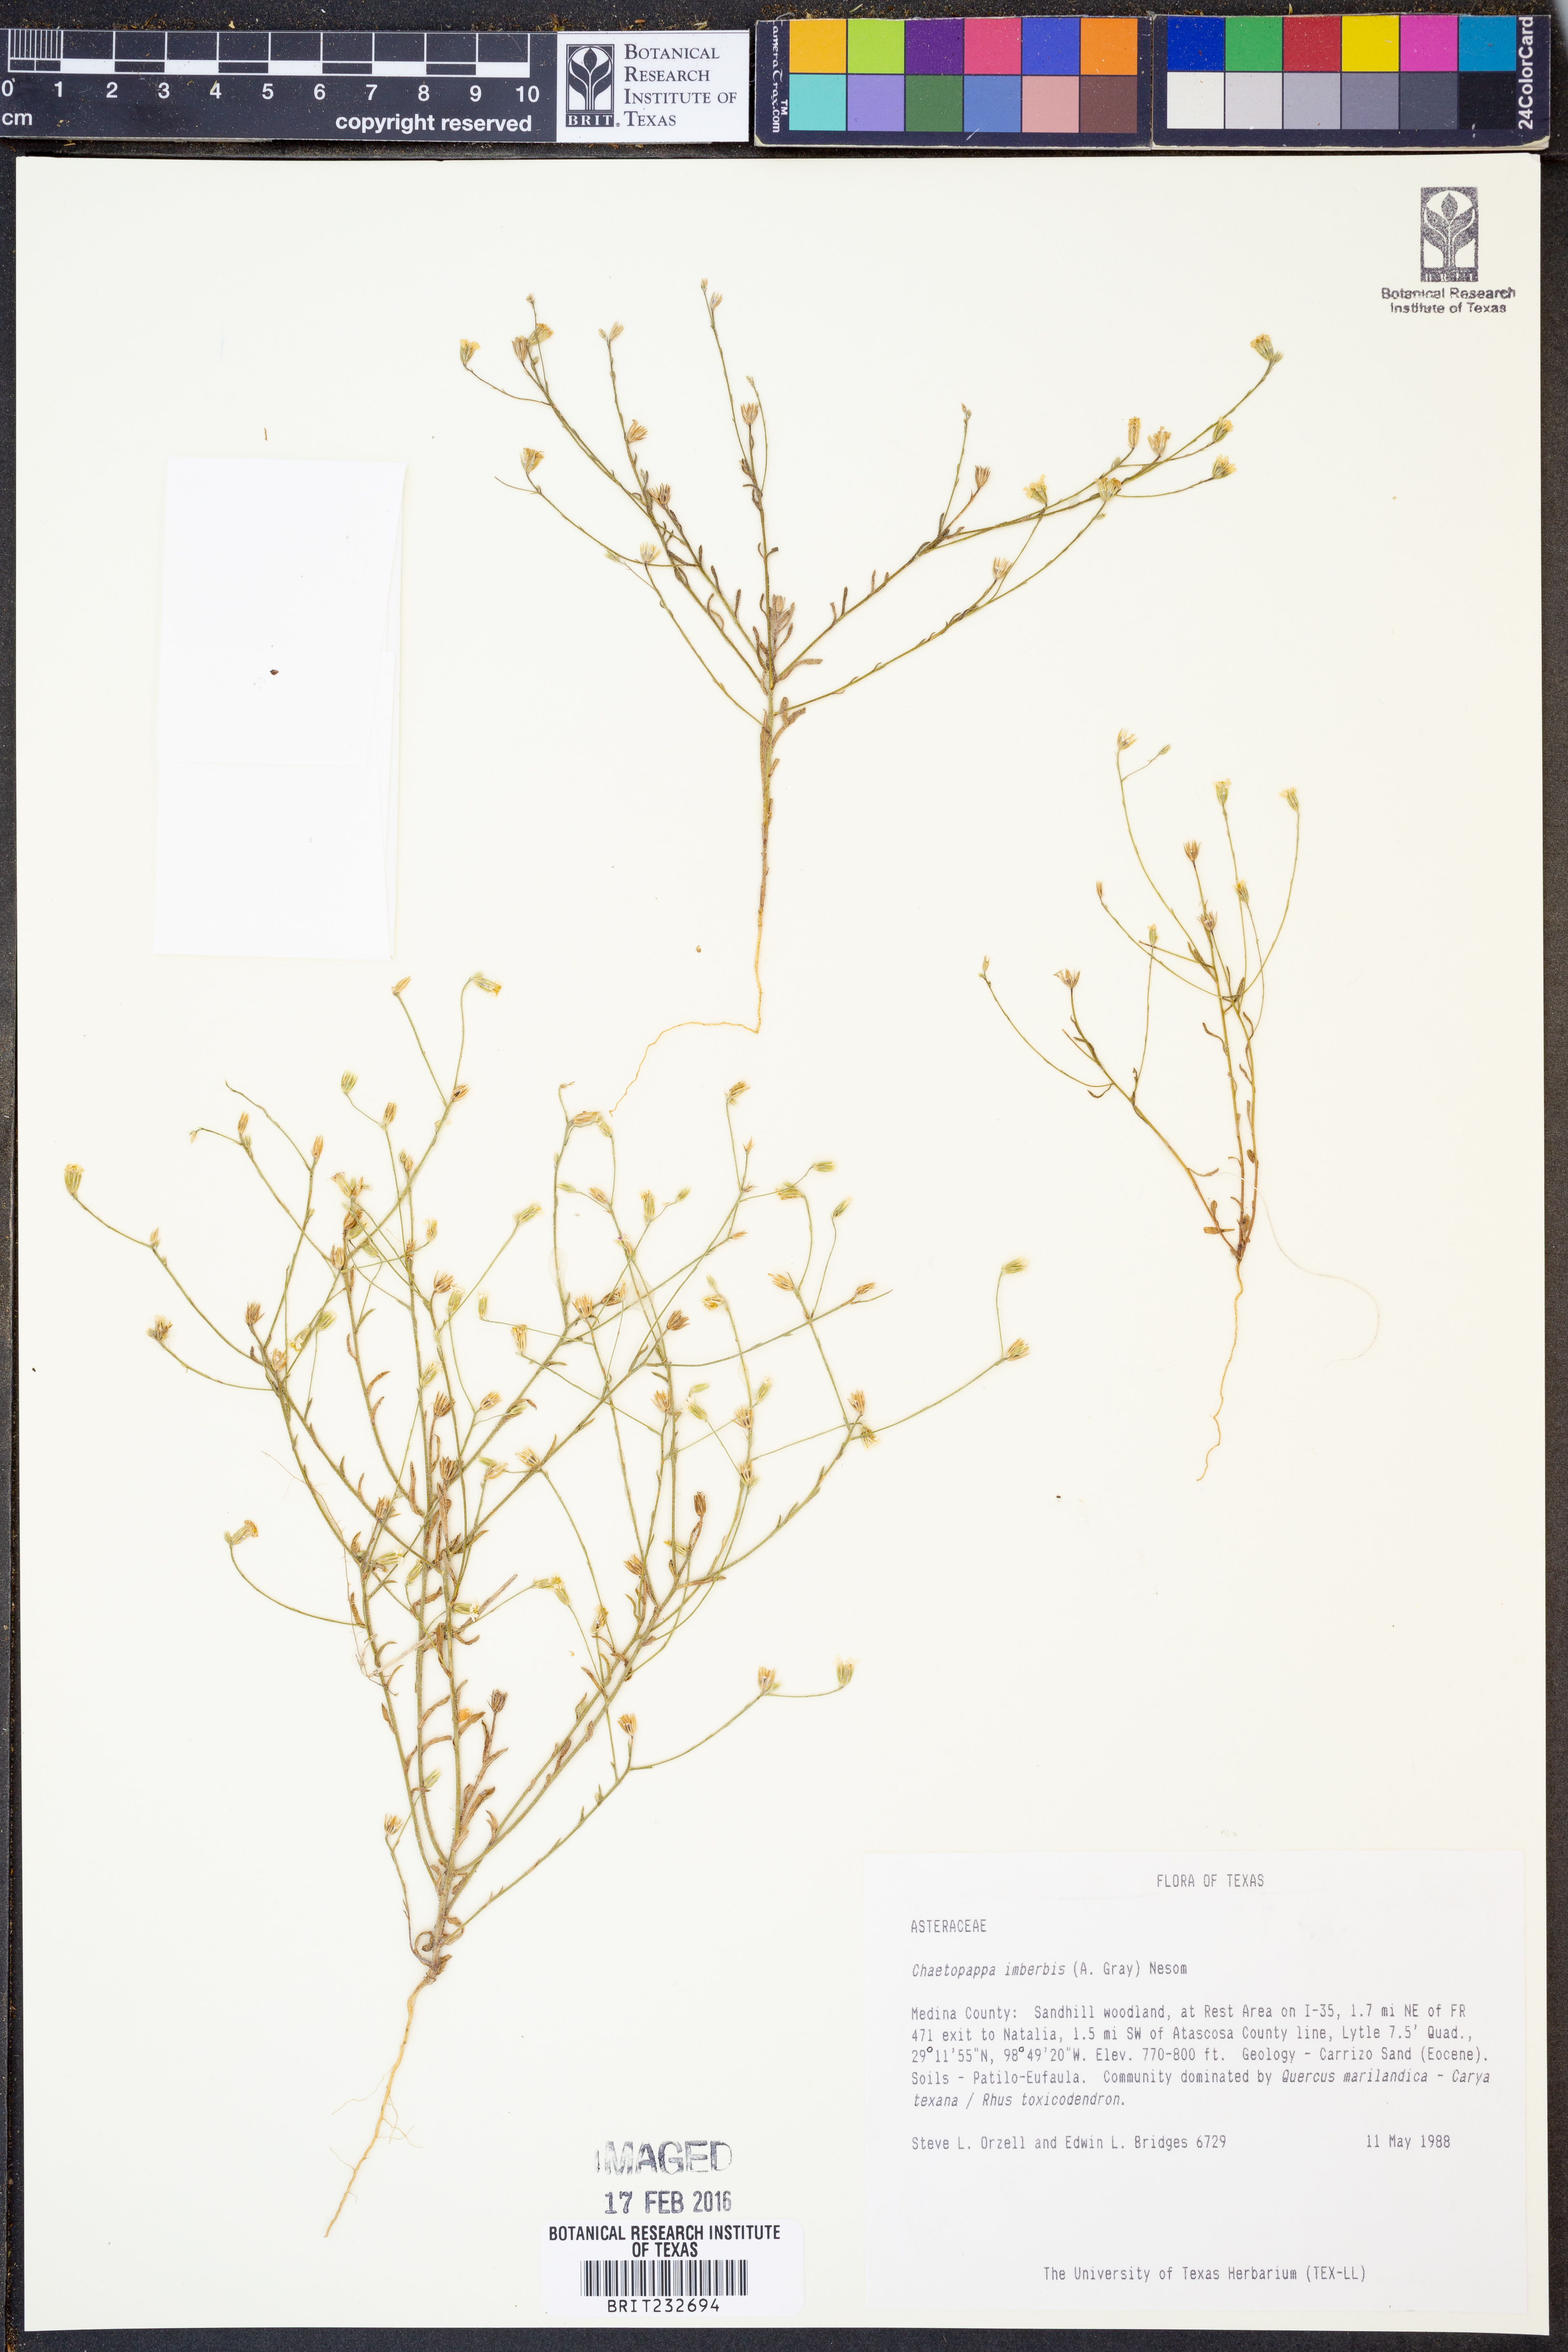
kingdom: Plantae
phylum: Tracheophyta
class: Magnoliopsida
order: Asterales
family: Asteraceae
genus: Chaetopappa
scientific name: Chaetopappa imberbis
